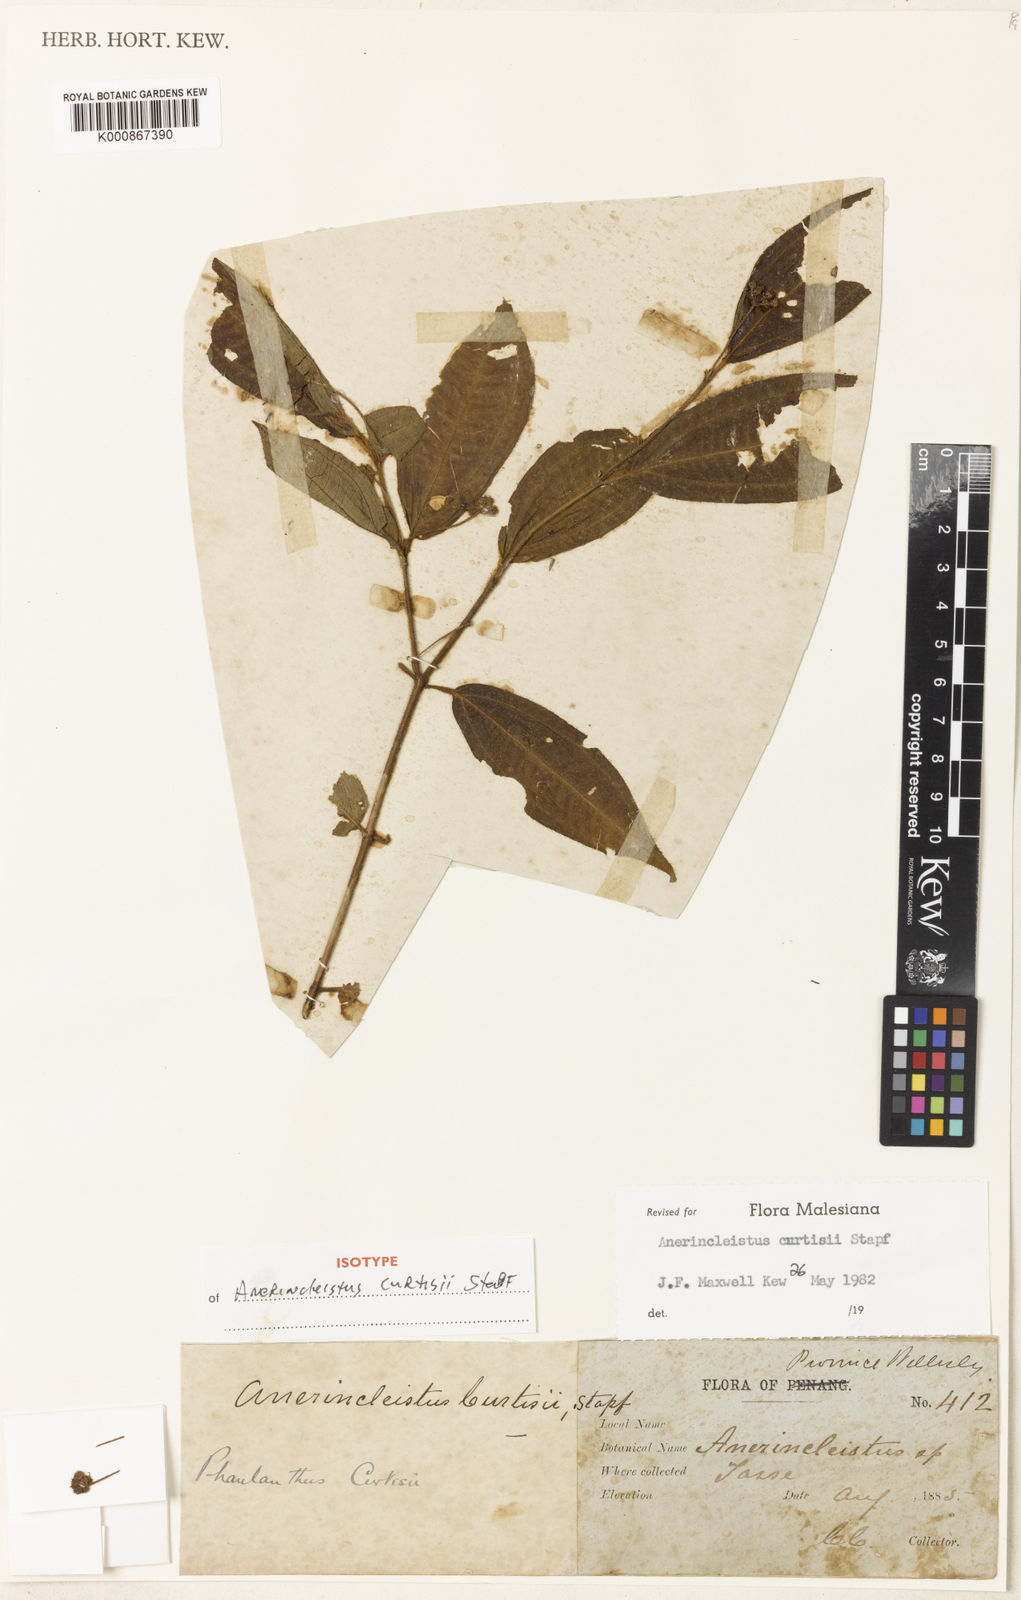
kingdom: Plantae
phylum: Tracheophyta
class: Magnoliopsida
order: Myrtales
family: Melastomataceae
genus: Anerincleistus
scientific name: Anerincleistus curtisii
